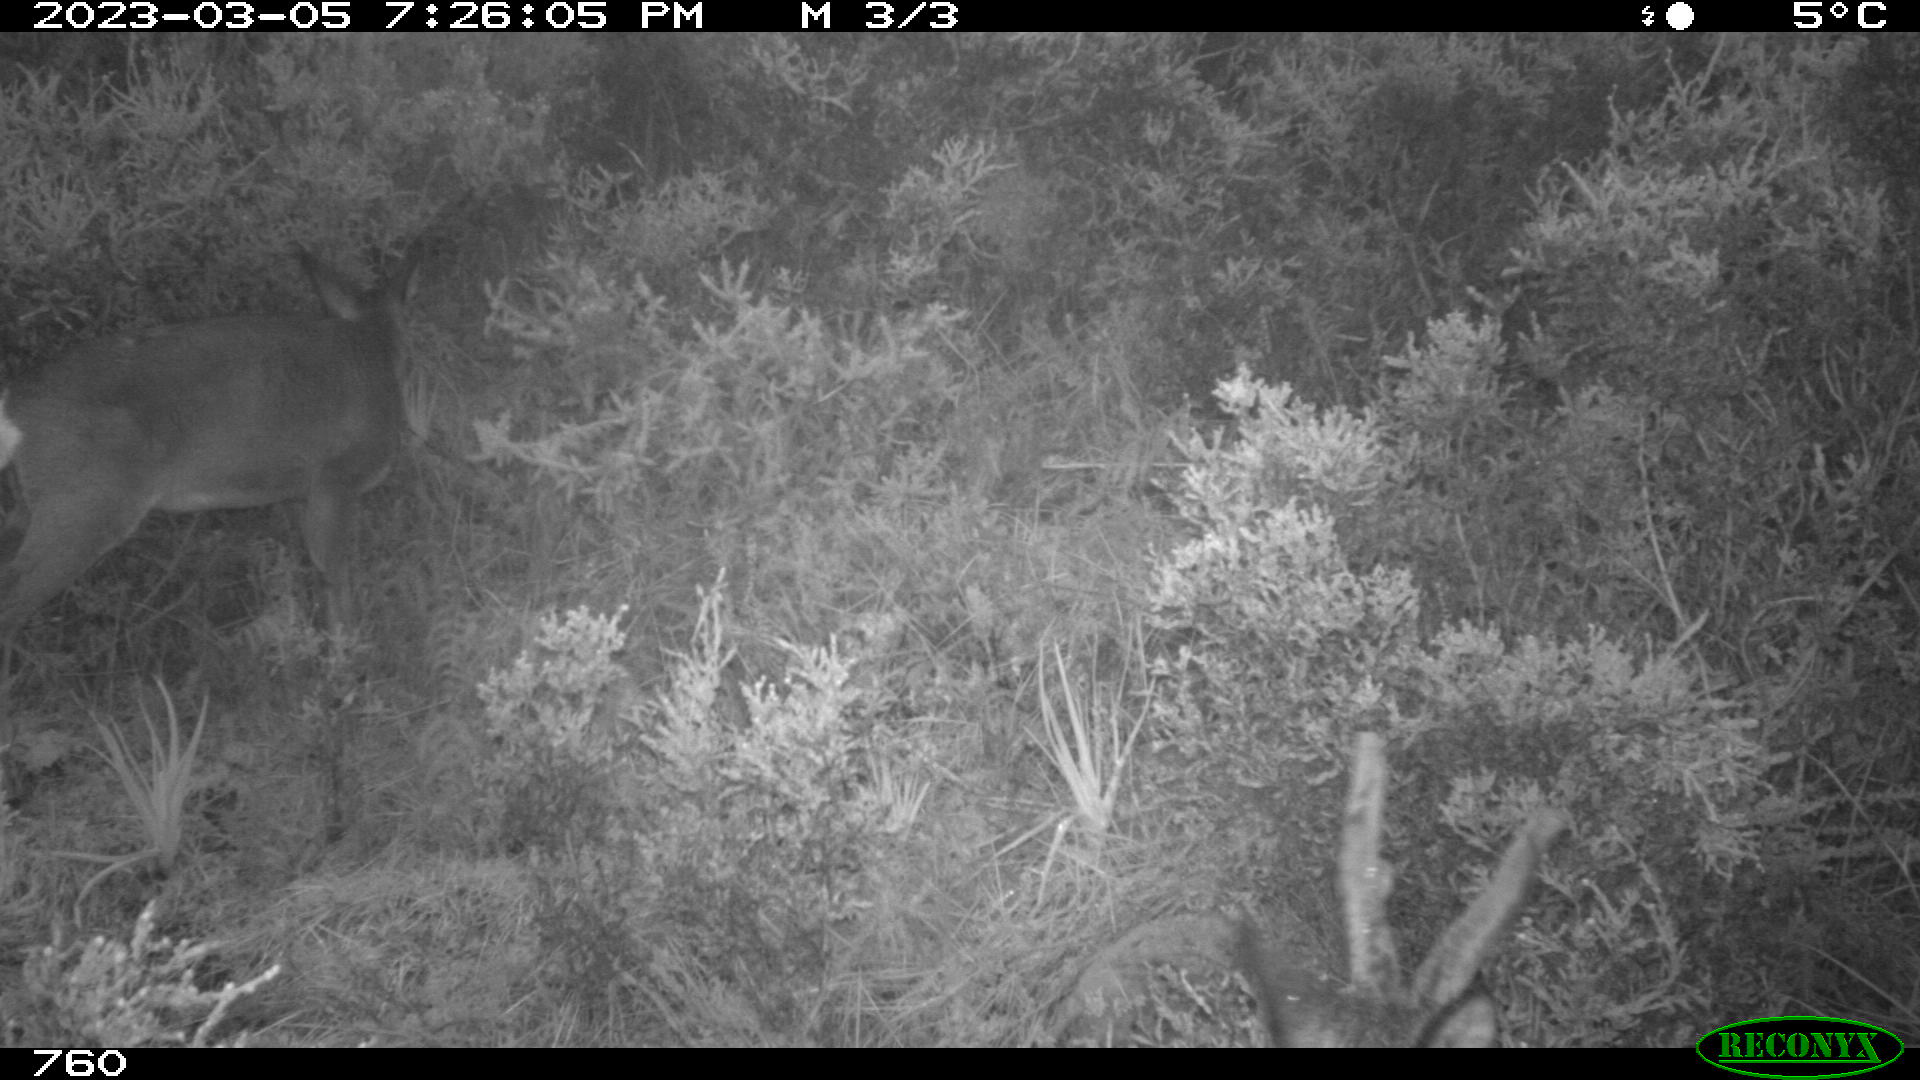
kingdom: Animalia
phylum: Chordata
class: Mammalia
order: Artiodactyla
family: Cervidae
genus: Capreolus
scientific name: Capreolus capreolus
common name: Western roe deer
